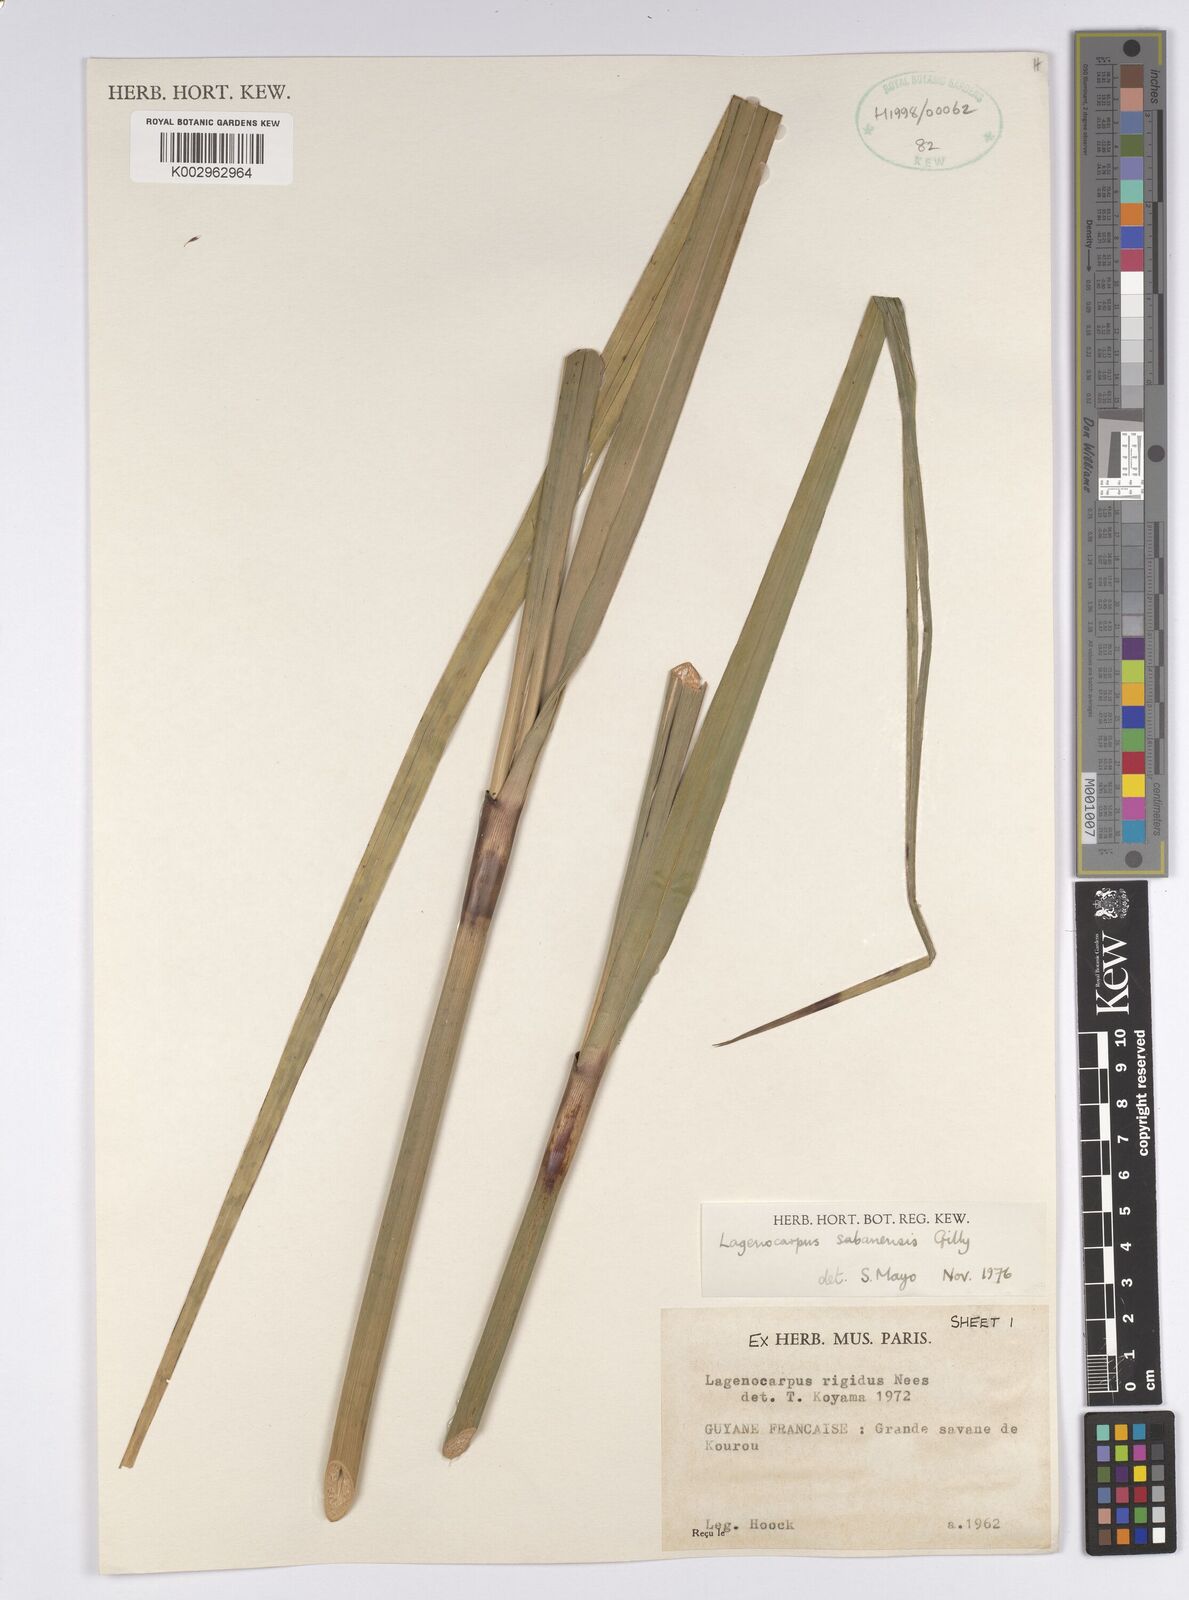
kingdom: Plantae
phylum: Tracheophyta
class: Liliopsida
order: Poales
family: Cyperaceae
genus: Lagenocarpus
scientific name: Lagenocarpus sabanensis
